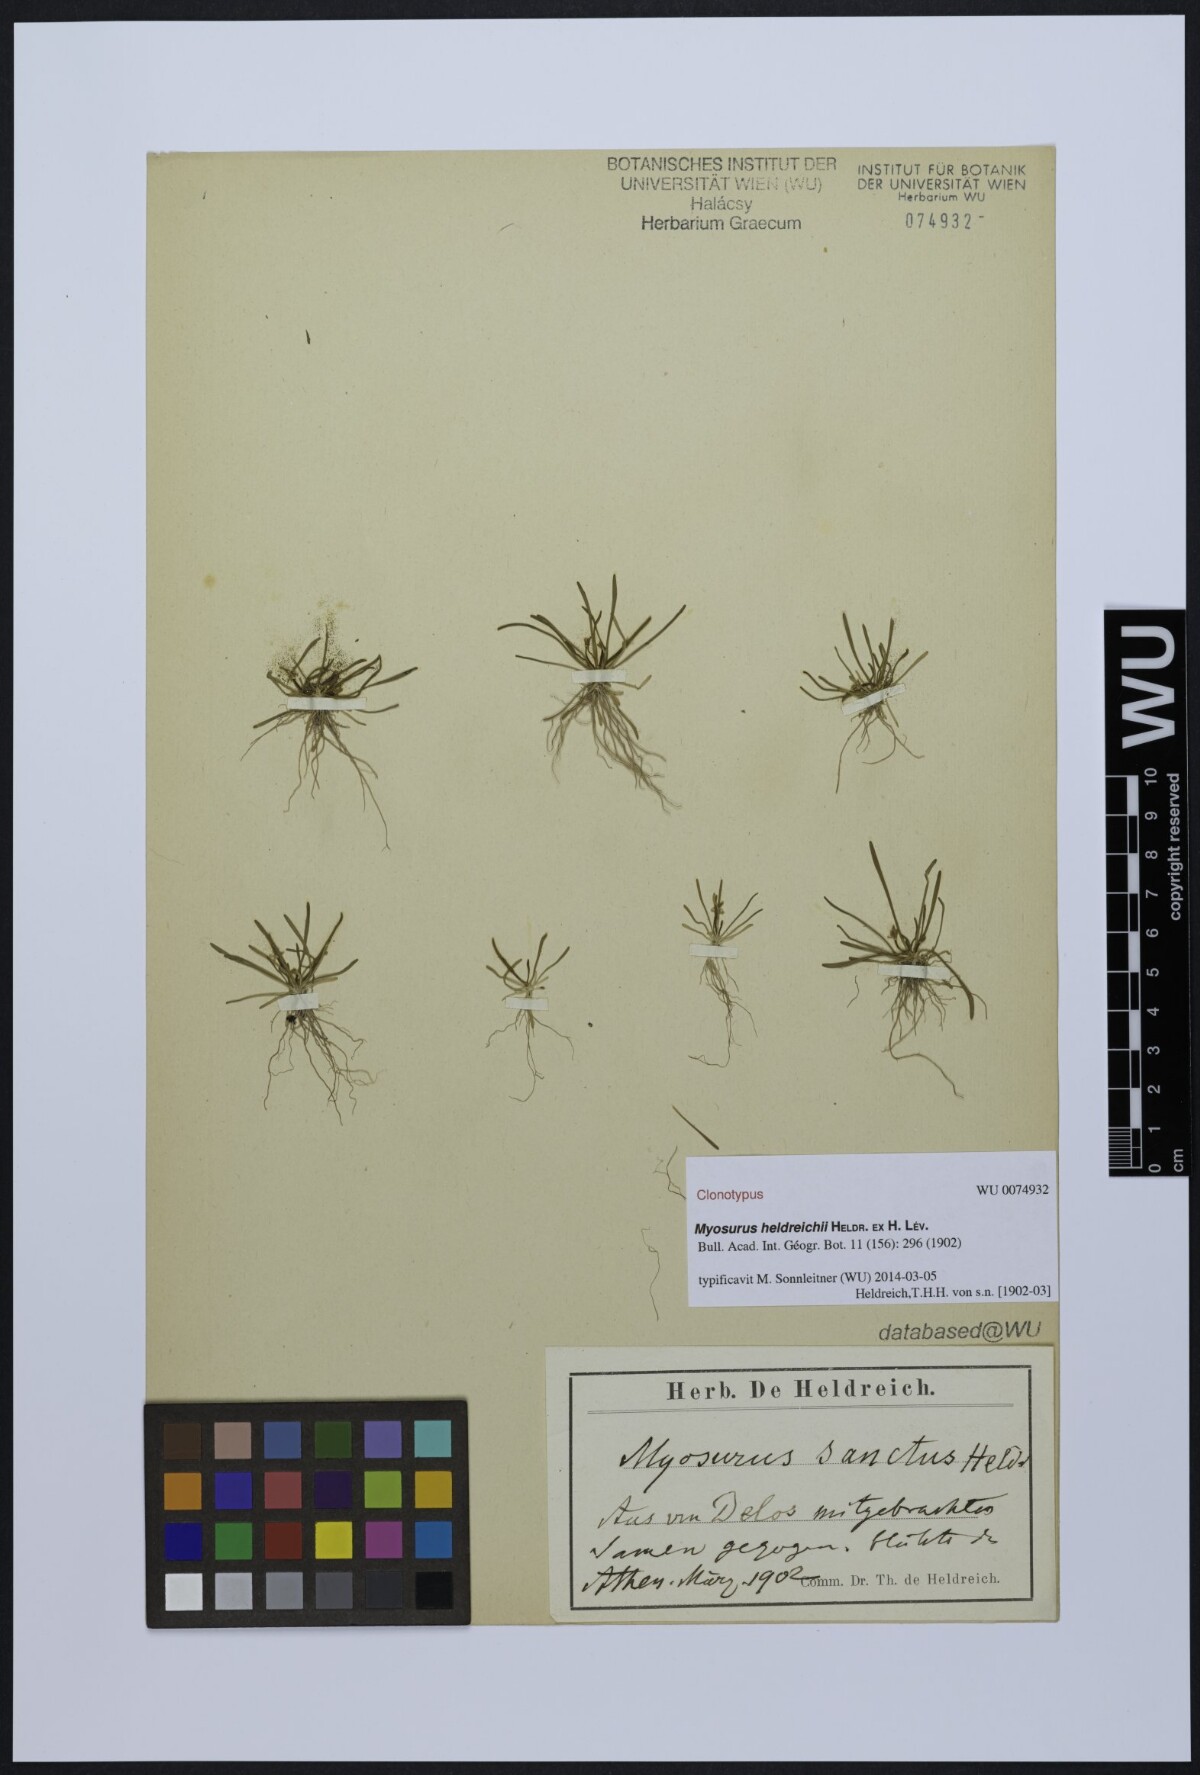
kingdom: Plantae
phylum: Tracheophyta
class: Magnoliopsida
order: Ranunculales
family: Ranunculaceae
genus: Myosurus
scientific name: Myosurus breviscapus
